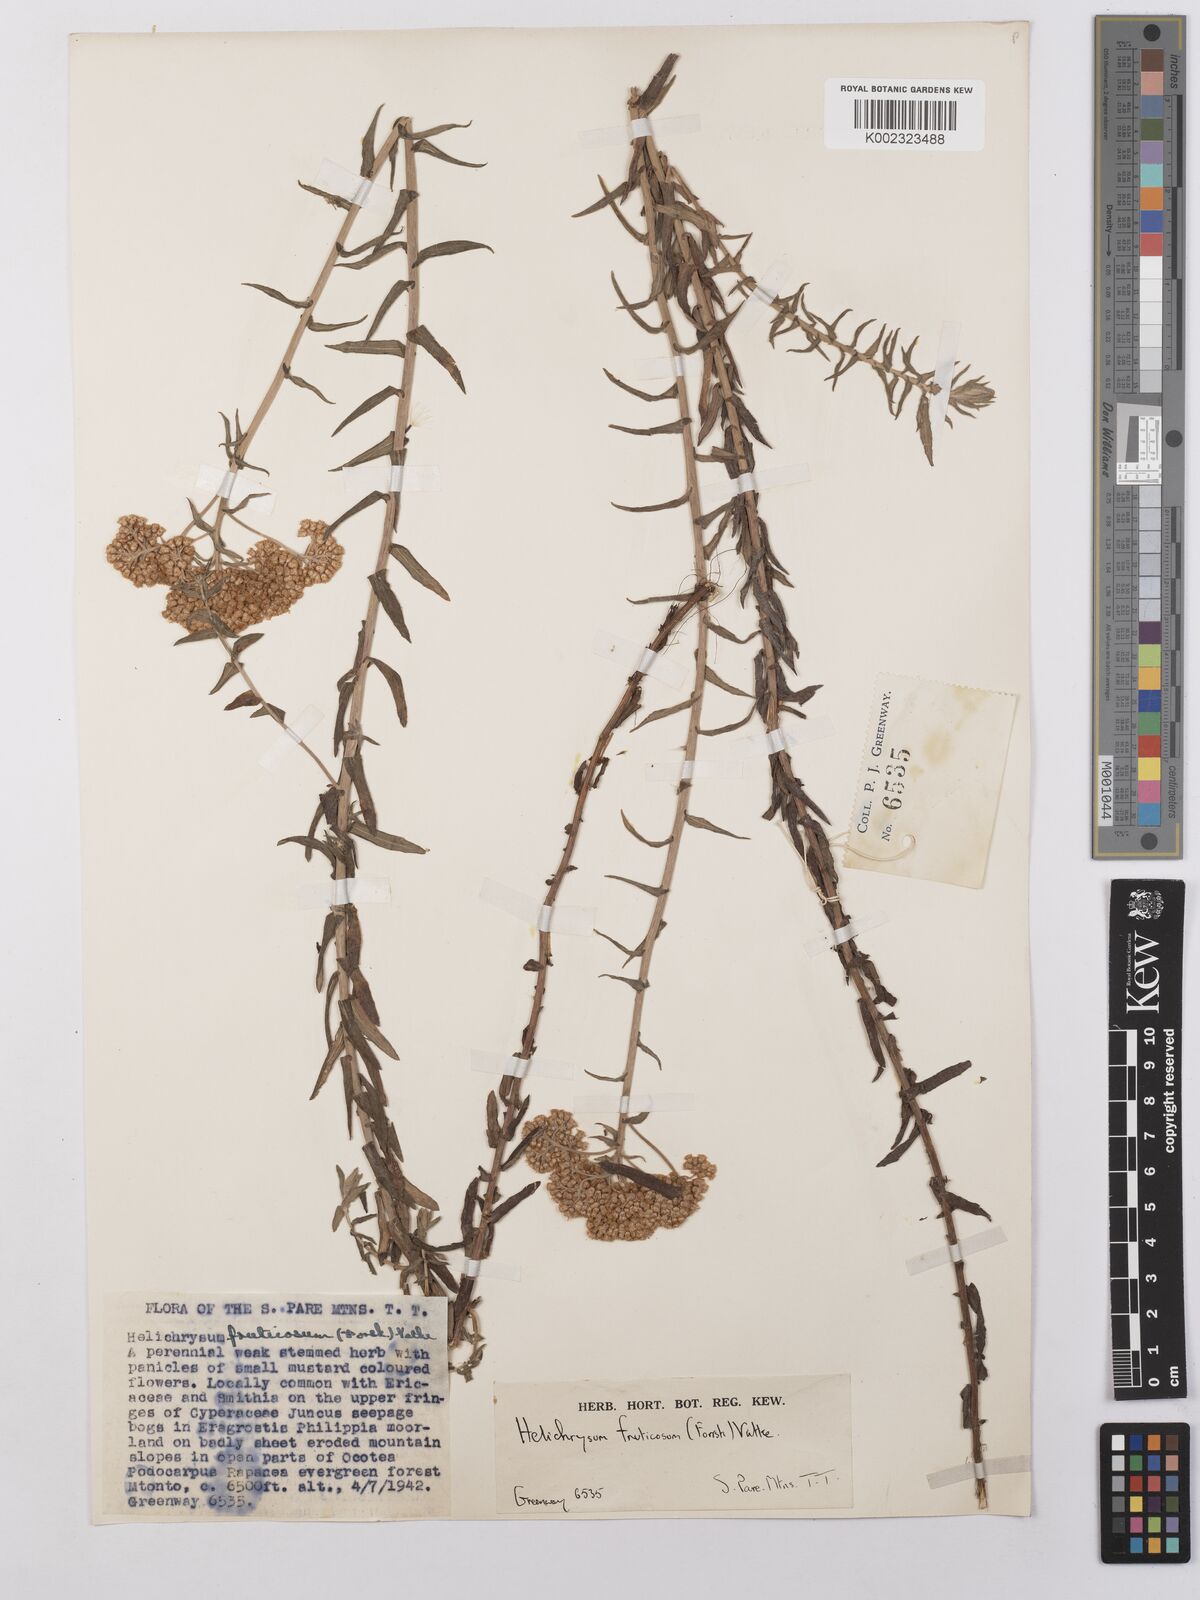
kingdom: Plantae
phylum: Tracheophyta
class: Magnoliopsida
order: Asterales
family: Asteraceae
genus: Helichrysum
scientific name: Helichrysum forskahlii
